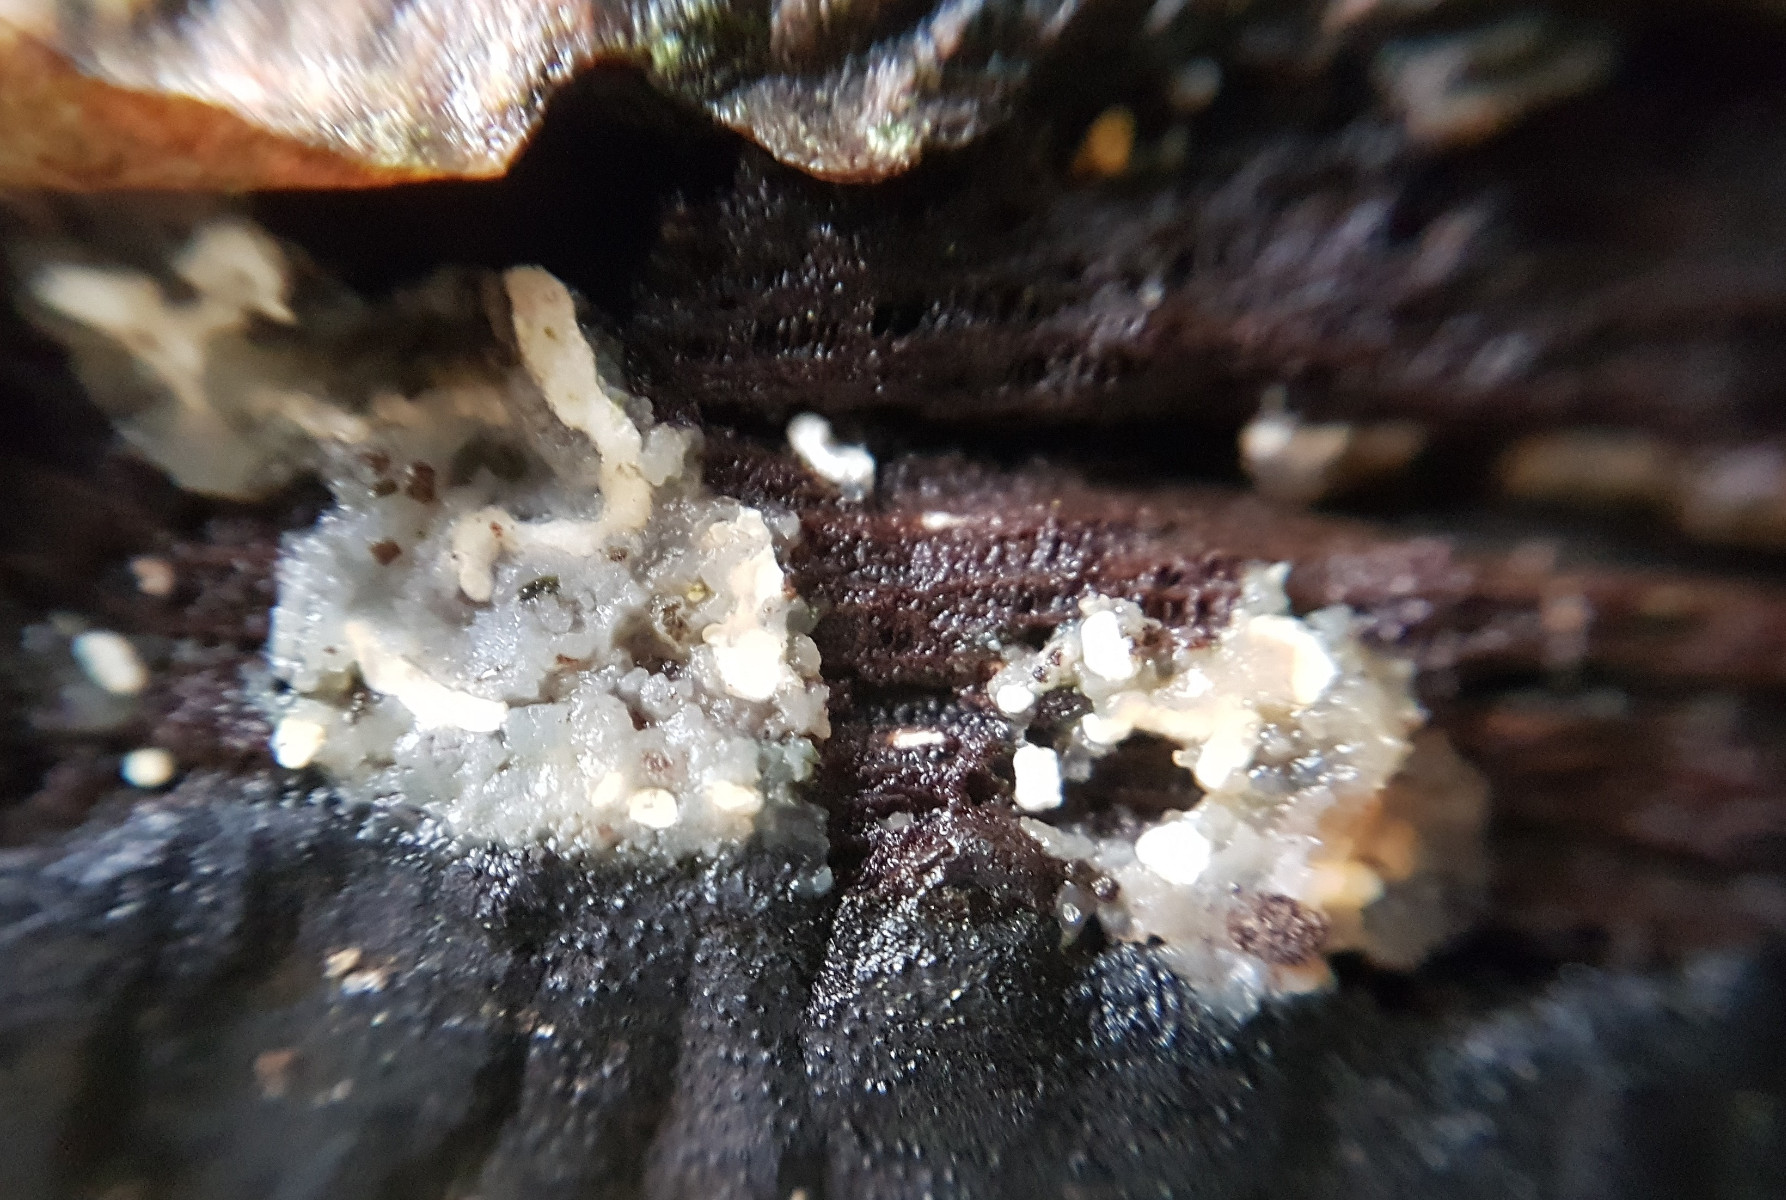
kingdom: Fungi
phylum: Basidiomycota
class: Agaricomycetes
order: Auriculariales
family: Hyaloriaceae
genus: Myxarium
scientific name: Myxarium nucleatum
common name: klar bævretop
